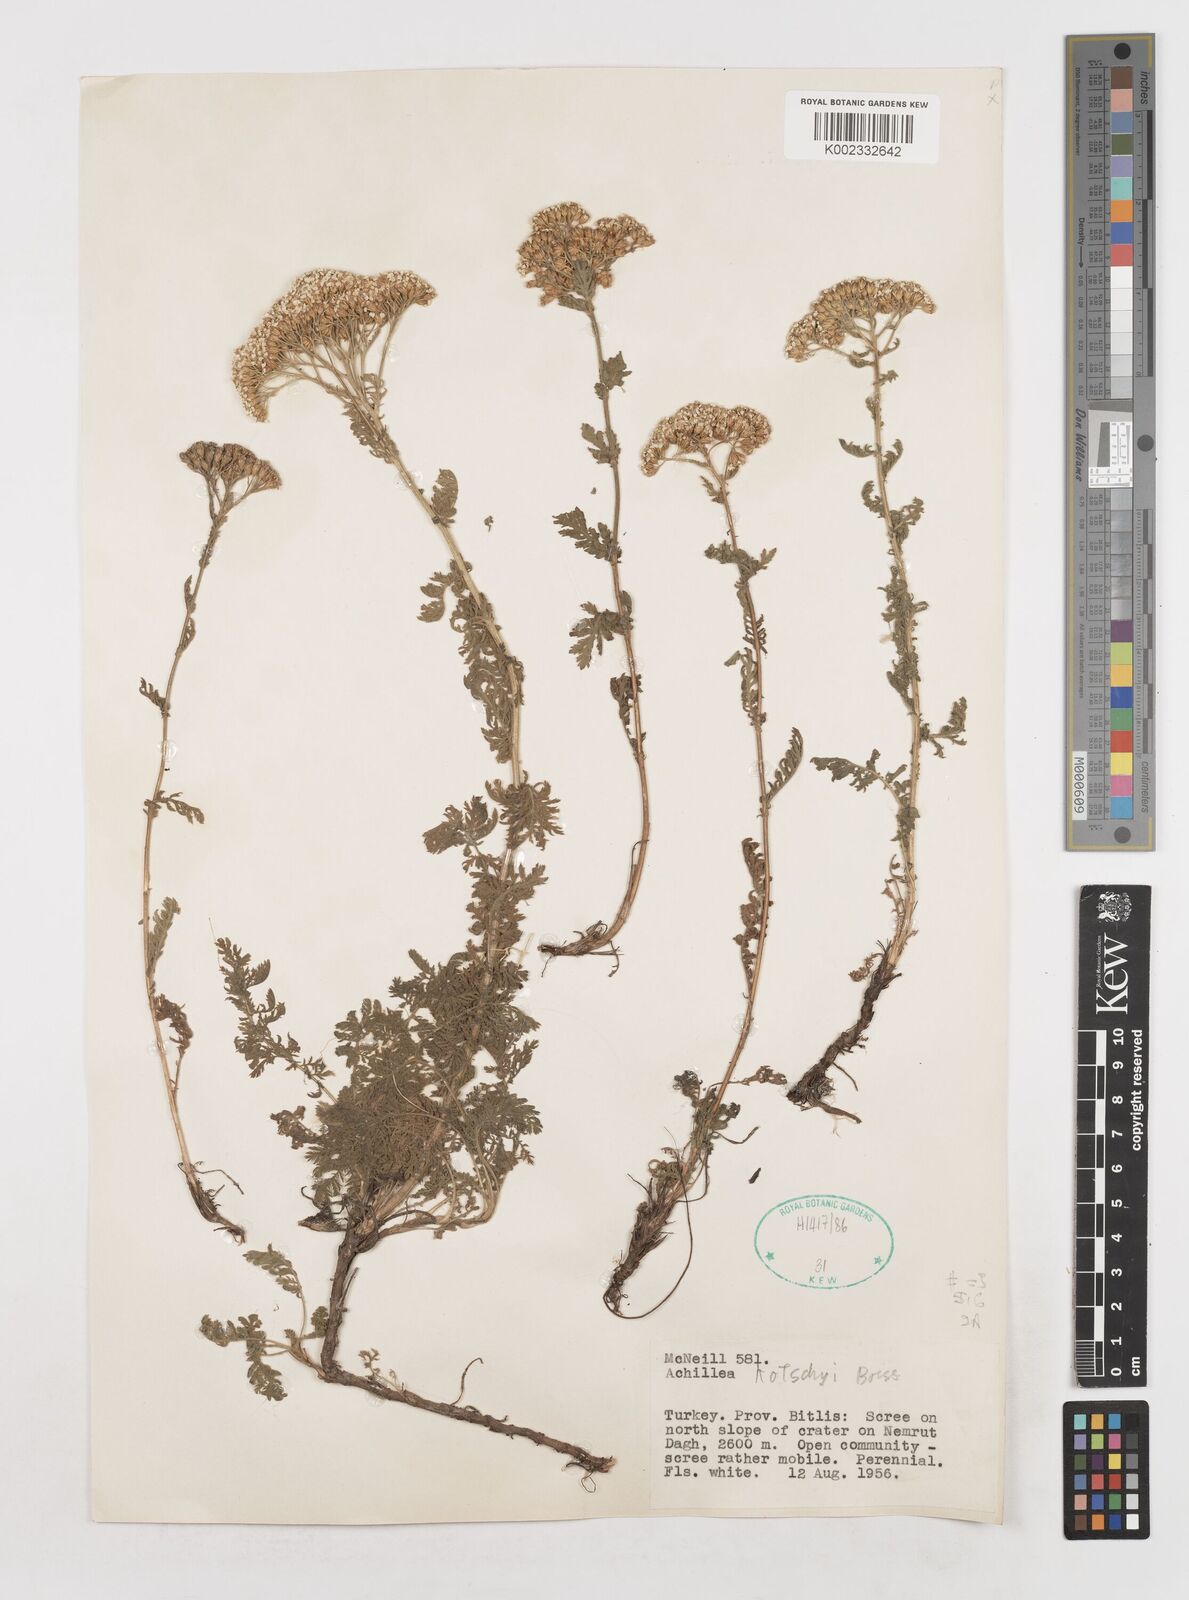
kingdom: Plantae
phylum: Tracheophyta
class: Magnoliopsida
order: Asterales
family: Asteraceae
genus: Achillea
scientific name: Achillea kotschyi
